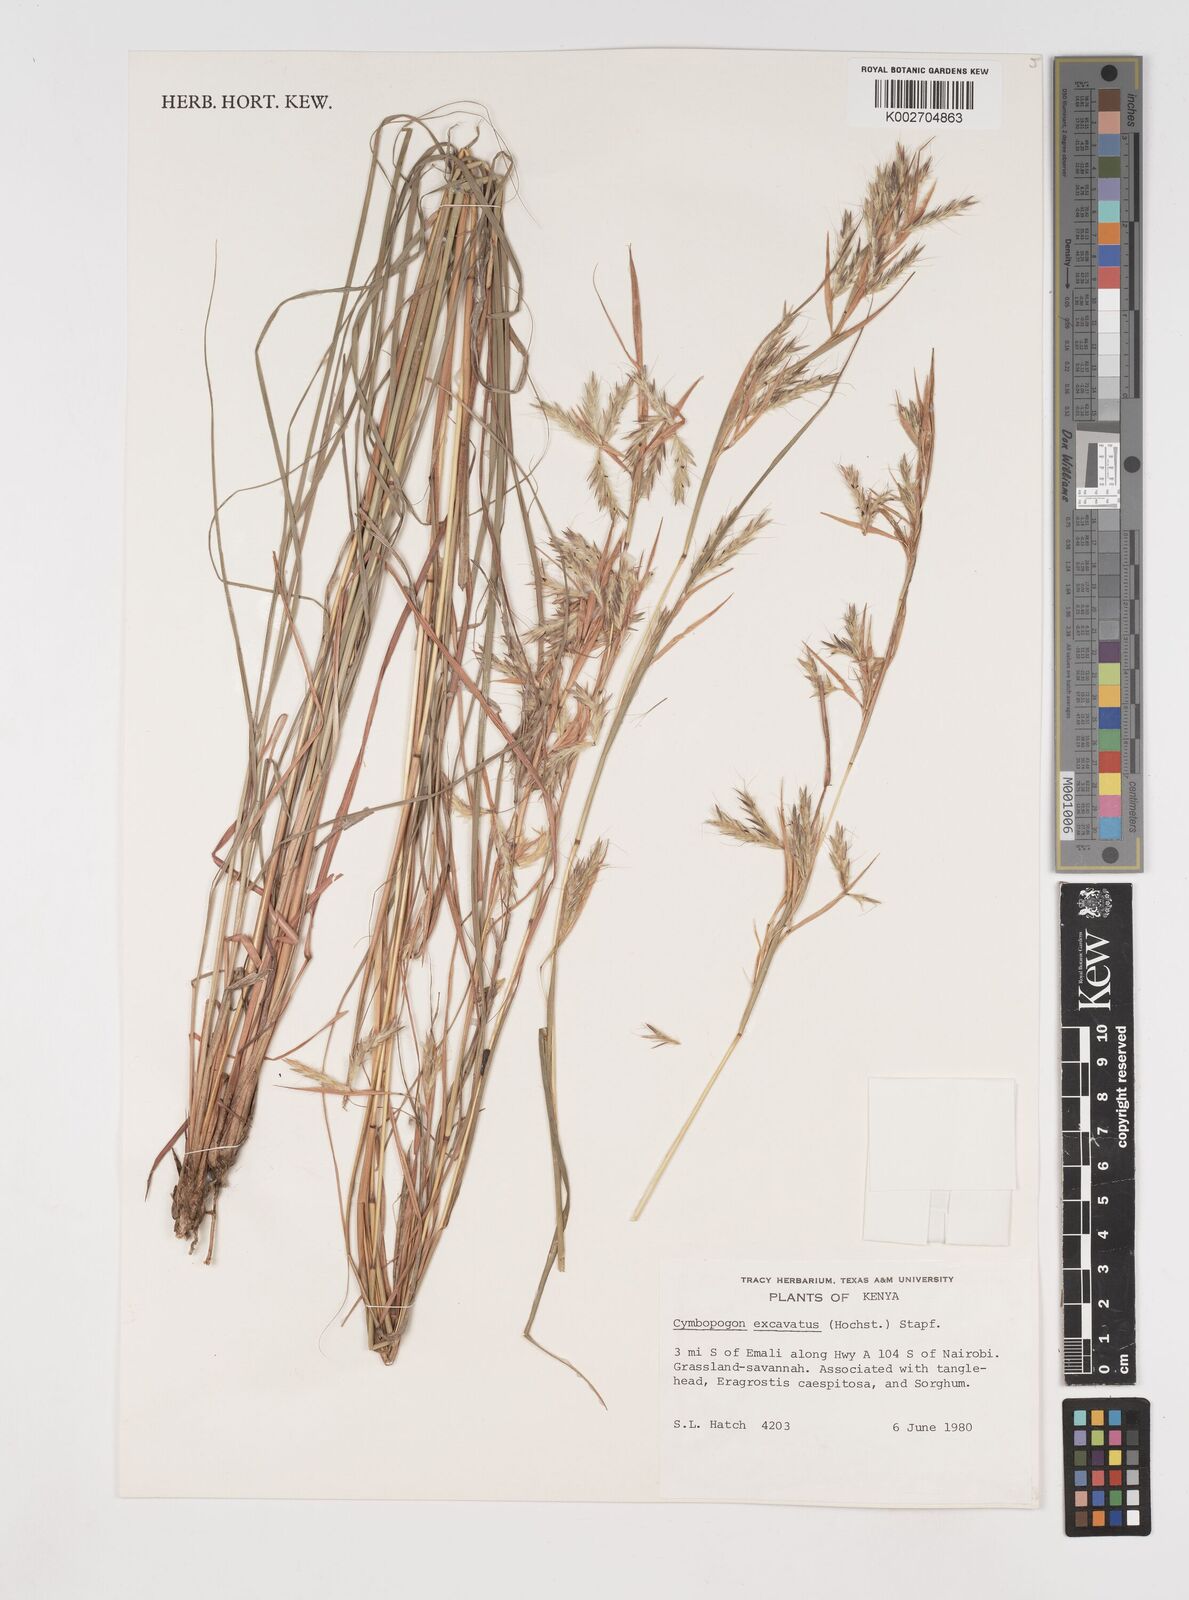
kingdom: Plantae
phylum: Tracheophyta
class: Liliopsida
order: Poales
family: Poaceae
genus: Cymbopogon
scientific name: Cymbopogon caesius
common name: Kachi grass
